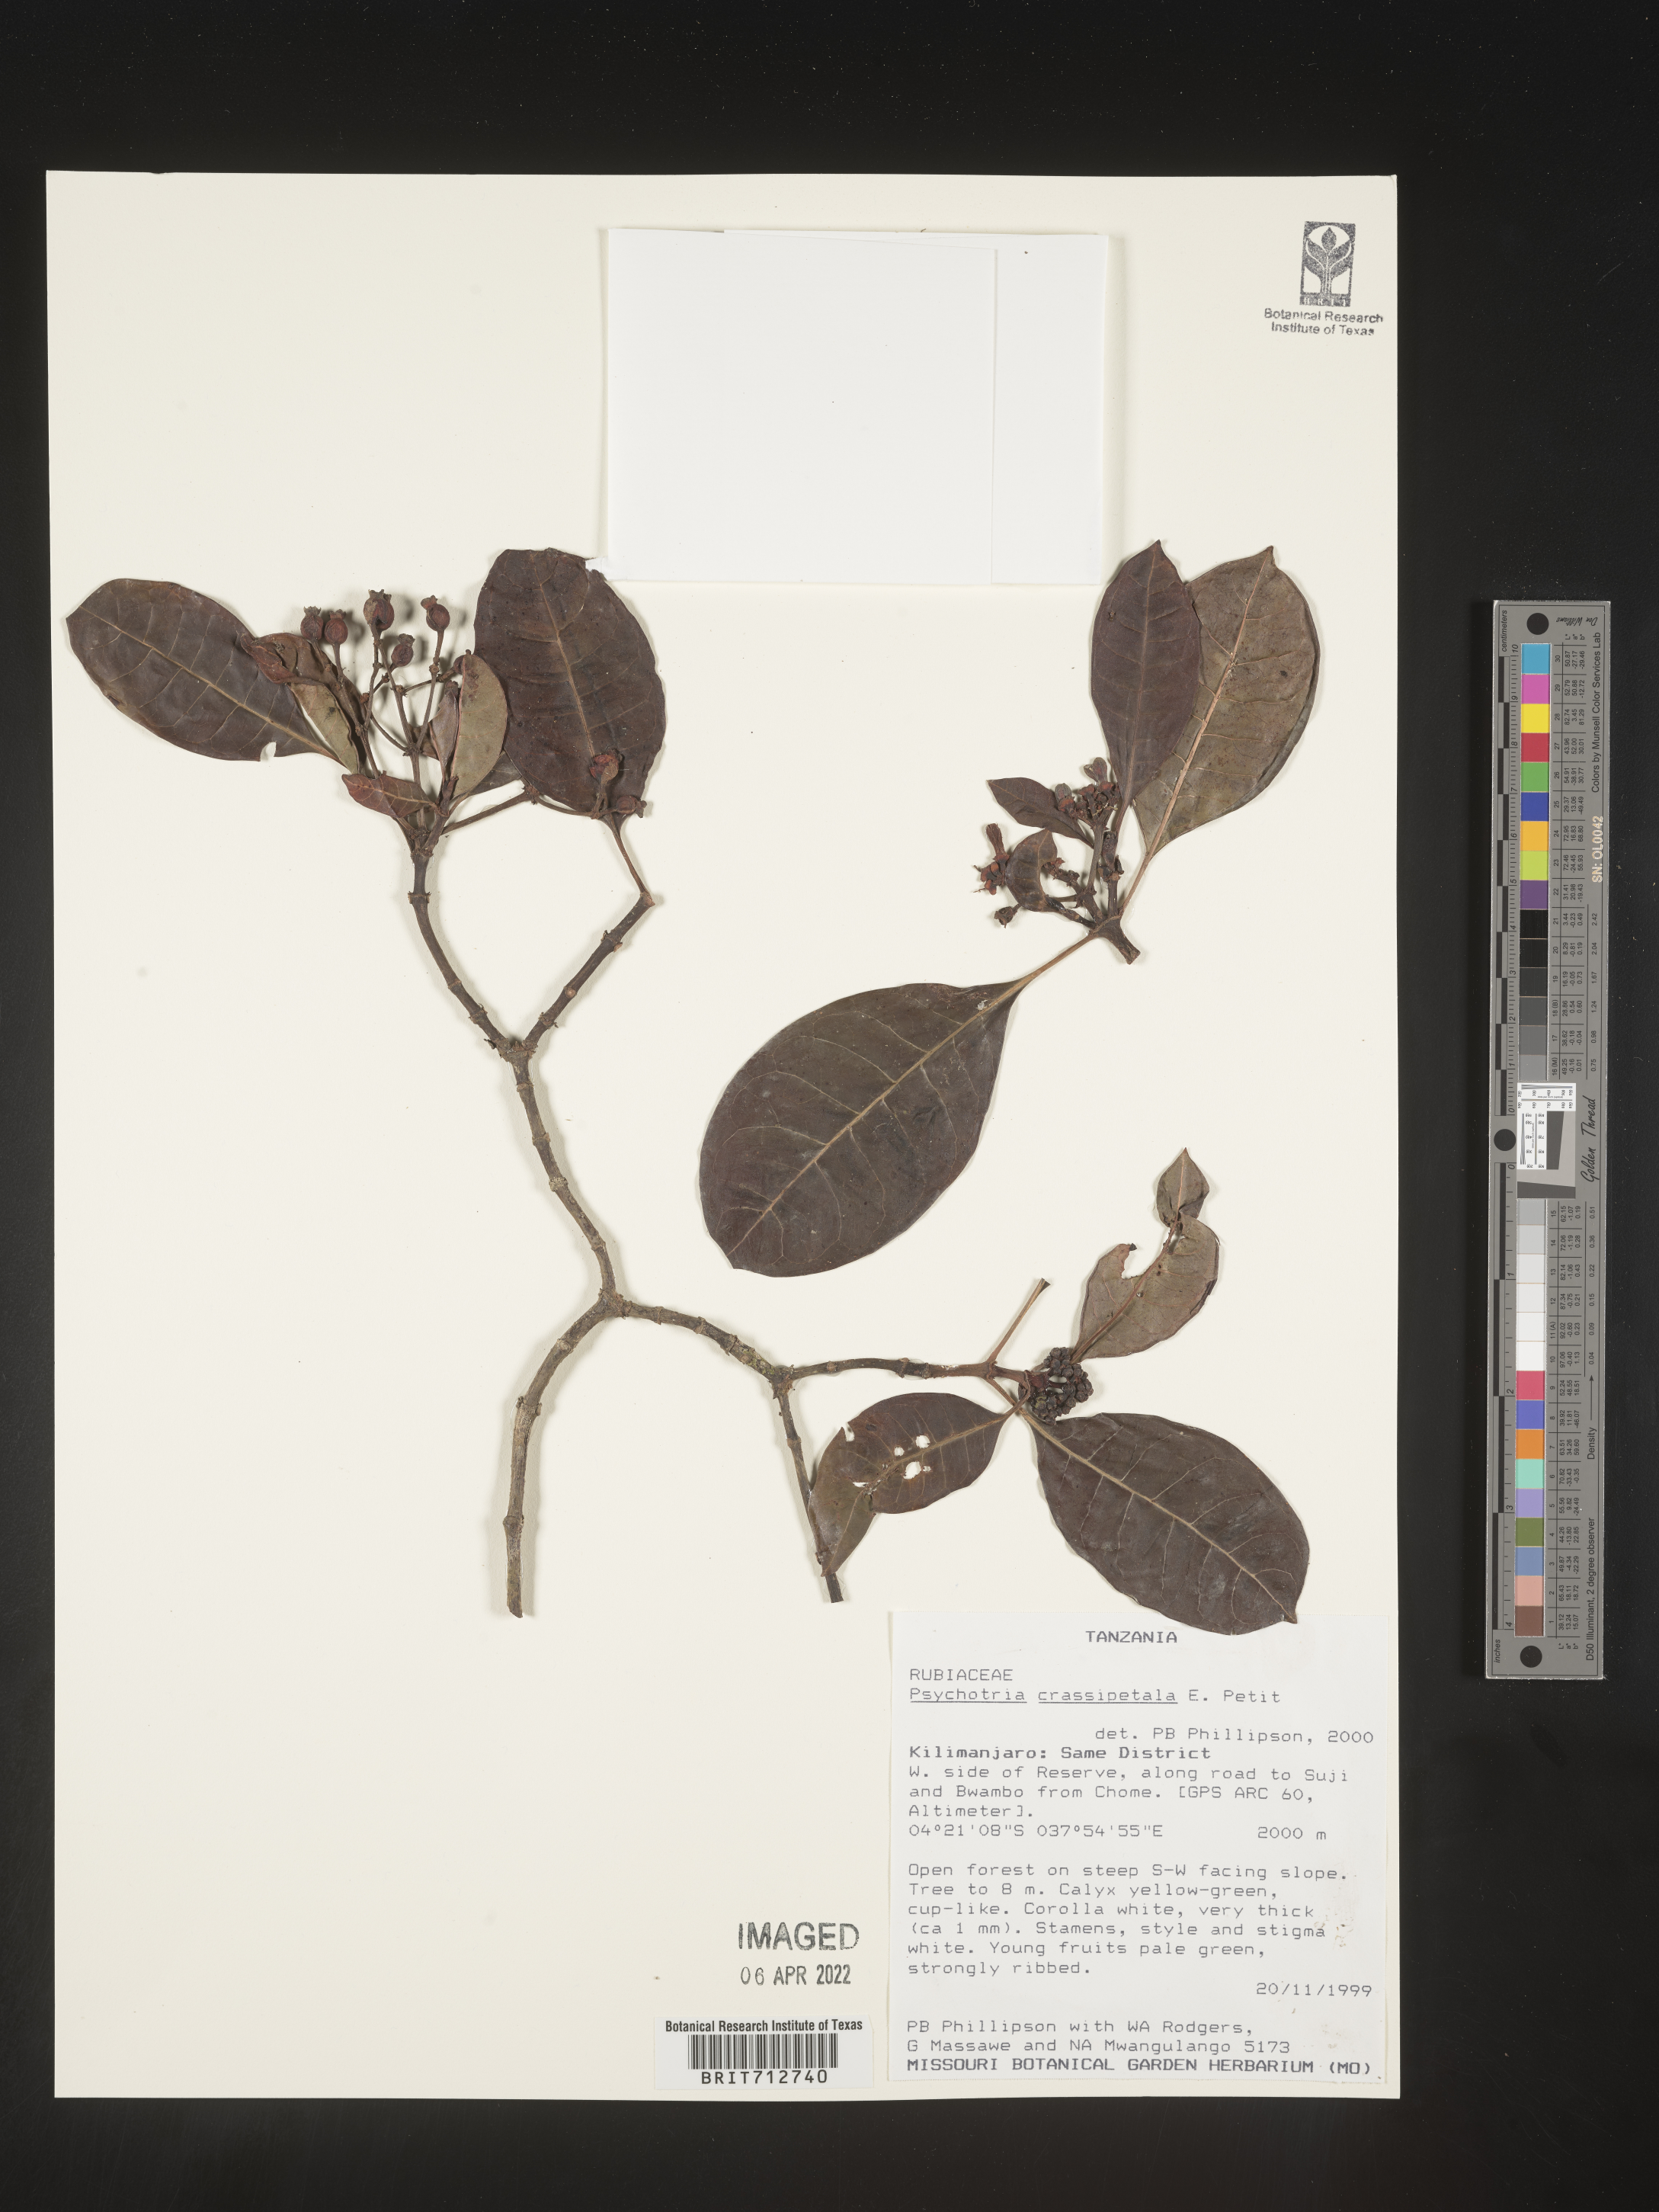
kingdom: Plantae
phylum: Tracheophyta
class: Magnoliopsida
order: Gentianales
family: Rubiaceae
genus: Psychotria
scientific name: Psychotria
